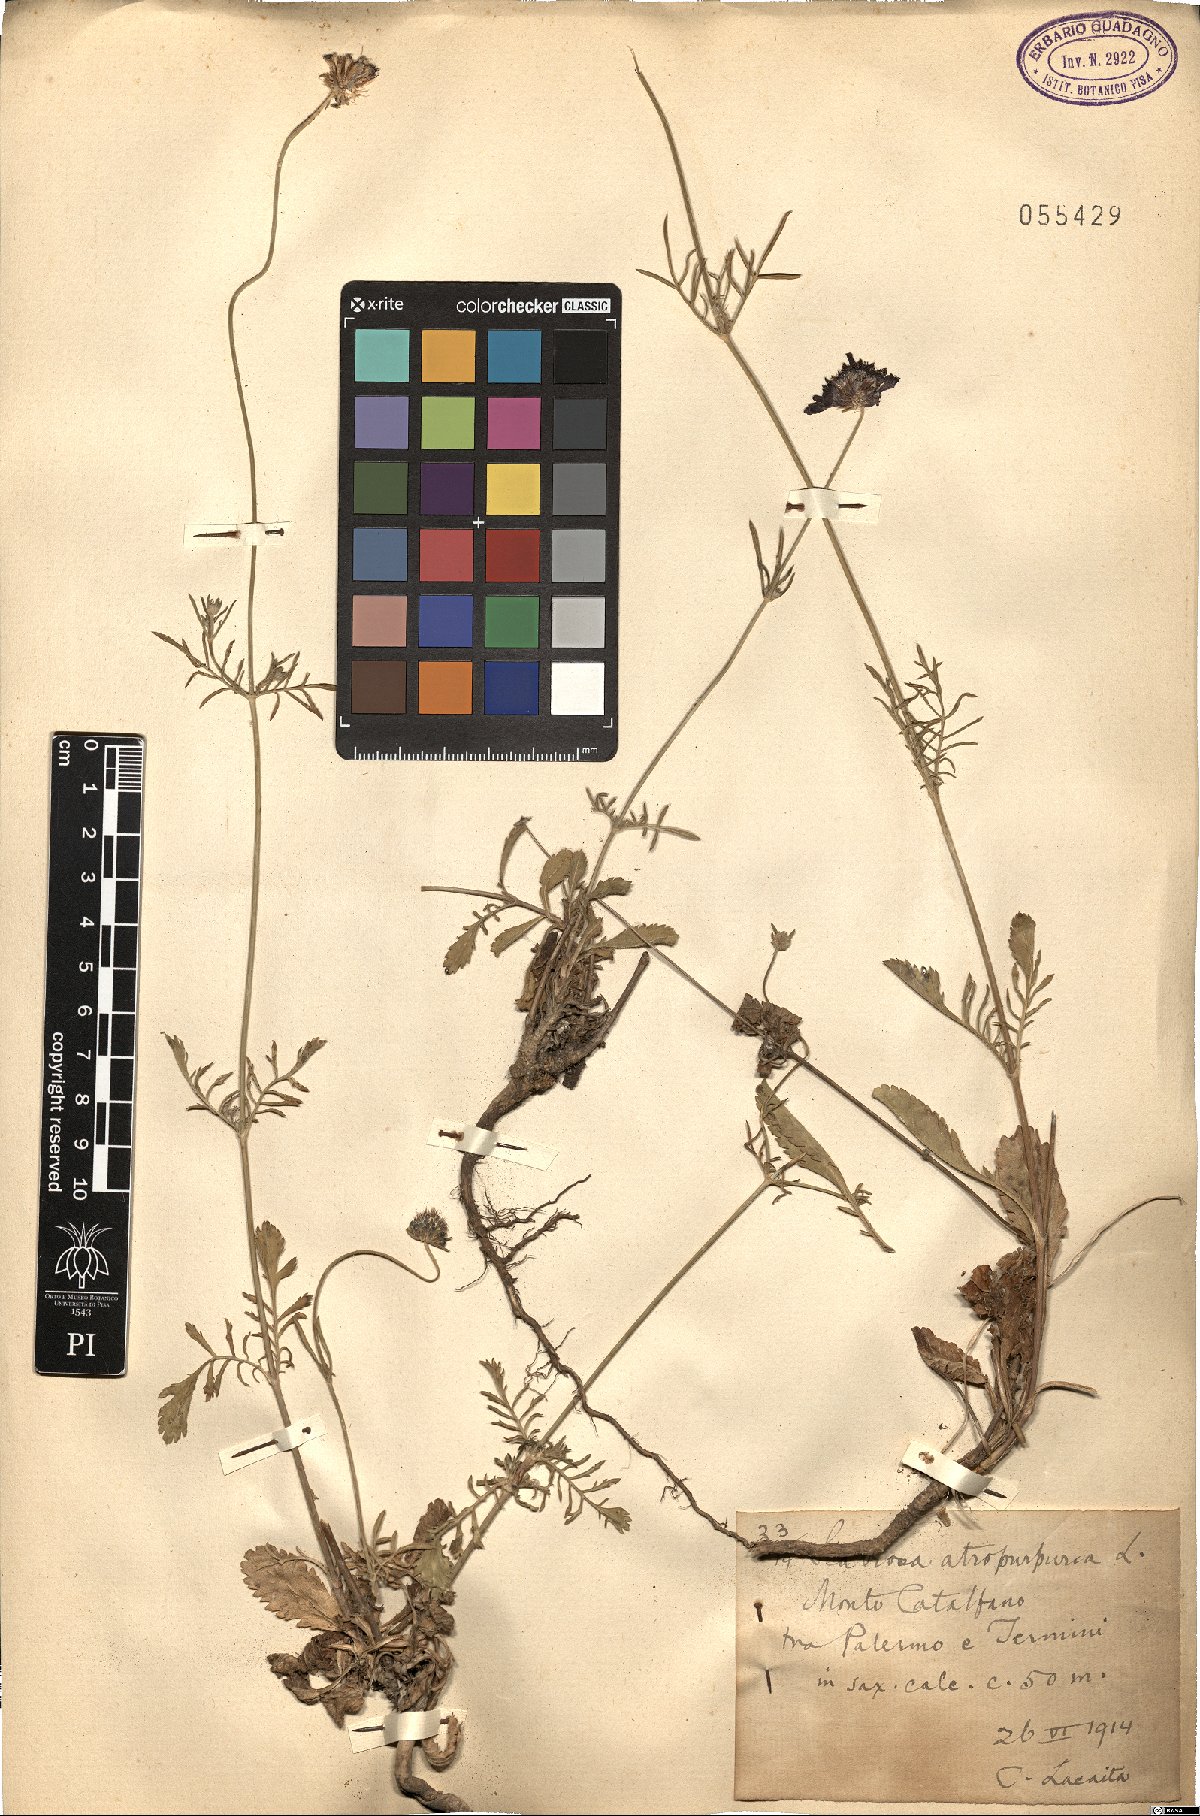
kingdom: Plantae
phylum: Tracheophyta
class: Magnoliopsida
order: Dipsacales
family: Caprifoliaceae
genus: Sixalix
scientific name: Sixalix atropurpurea
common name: Sweet scabious
